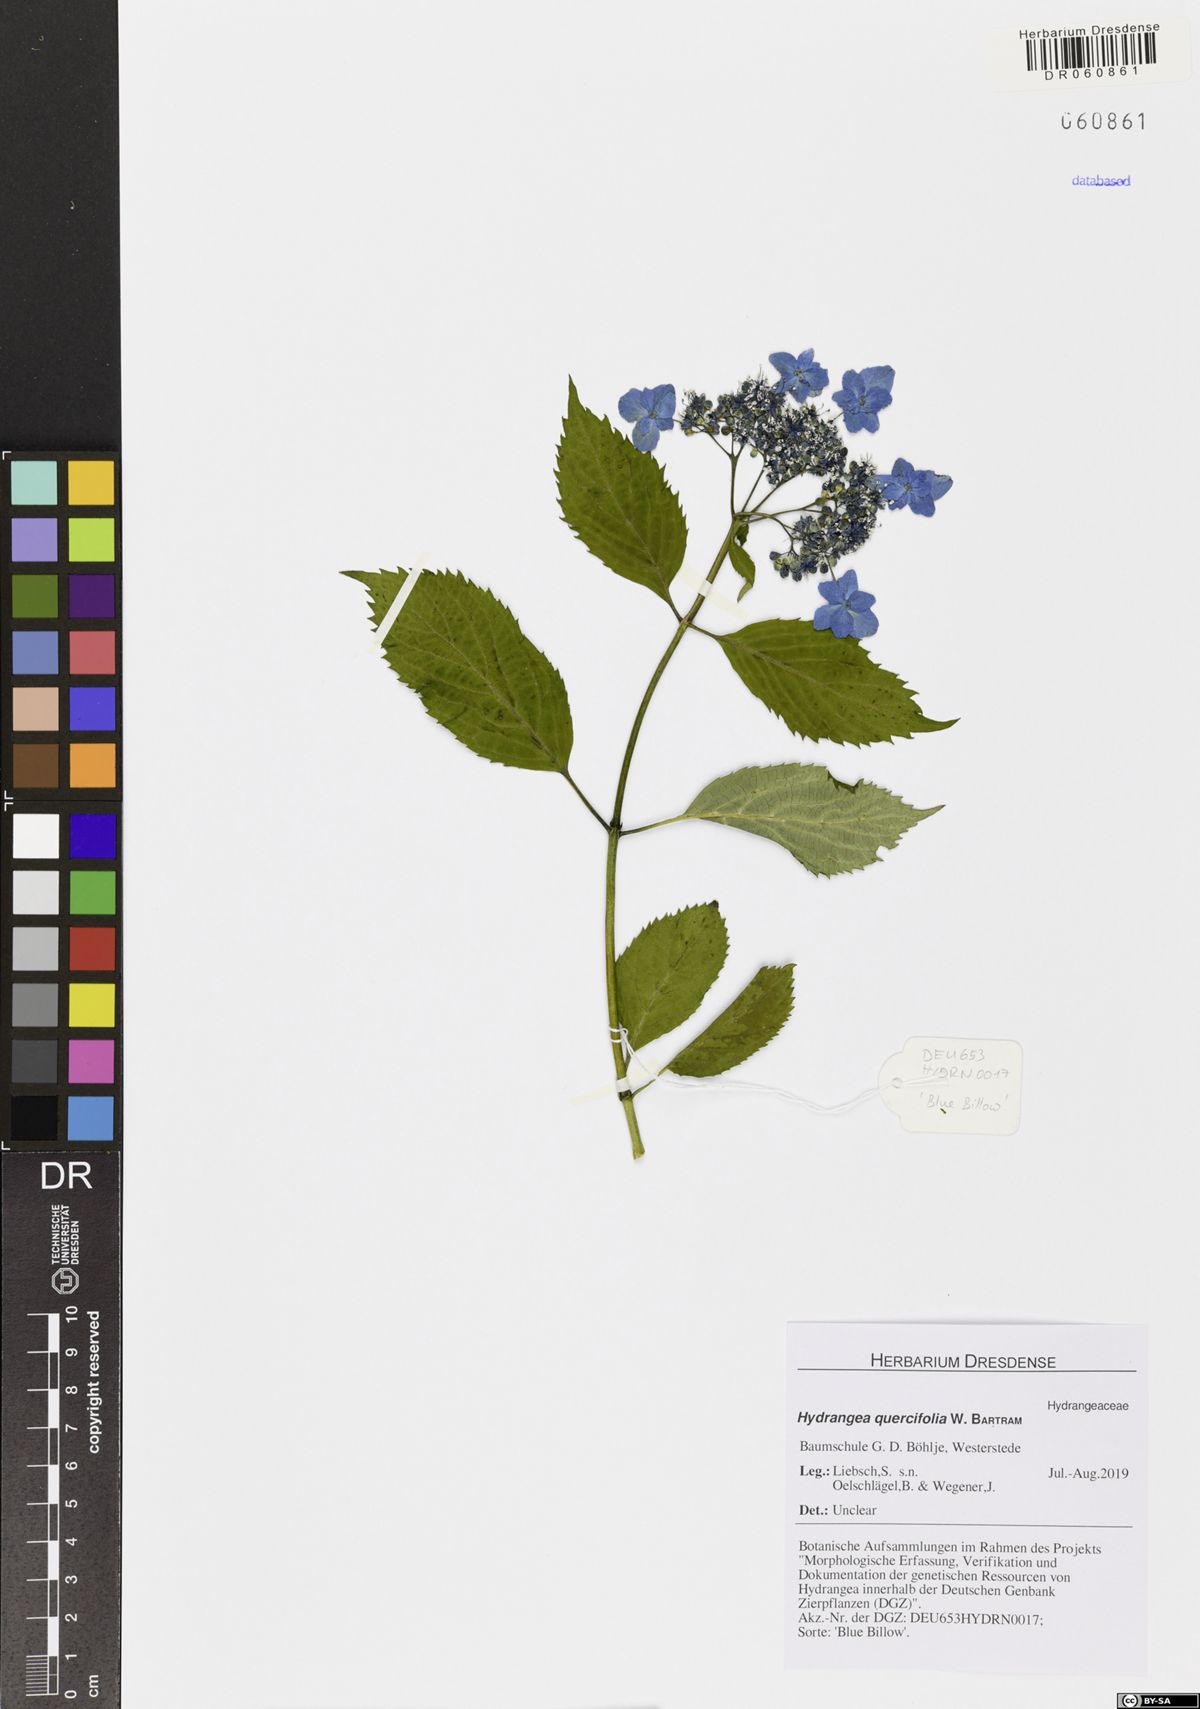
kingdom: Plantae
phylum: Tracheophyta
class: Magnoliopsida
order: Cornales
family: Hydrangeaceae
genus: Hydrangea
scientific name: Hydrangea serrata
